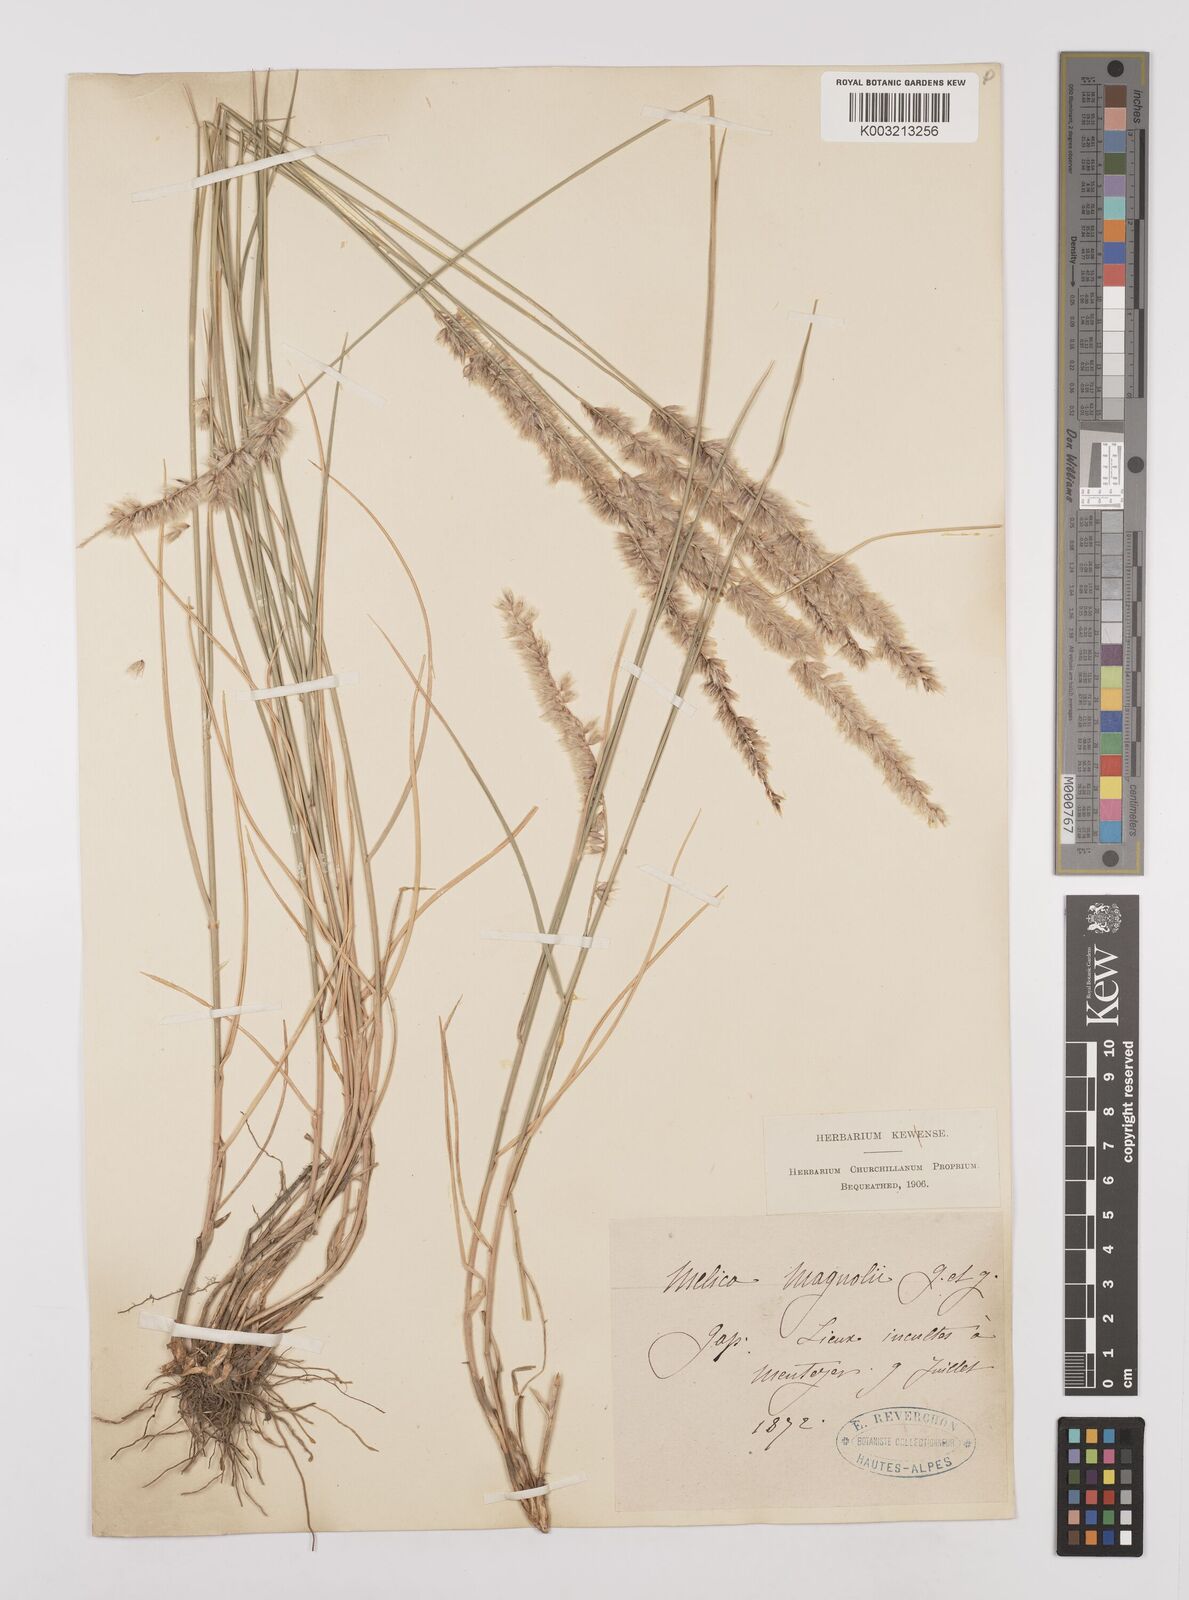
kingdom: Plantae
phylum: Tracheophyta
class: Liliopsida
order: Poales
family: Poaceae
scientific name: Poaceae
